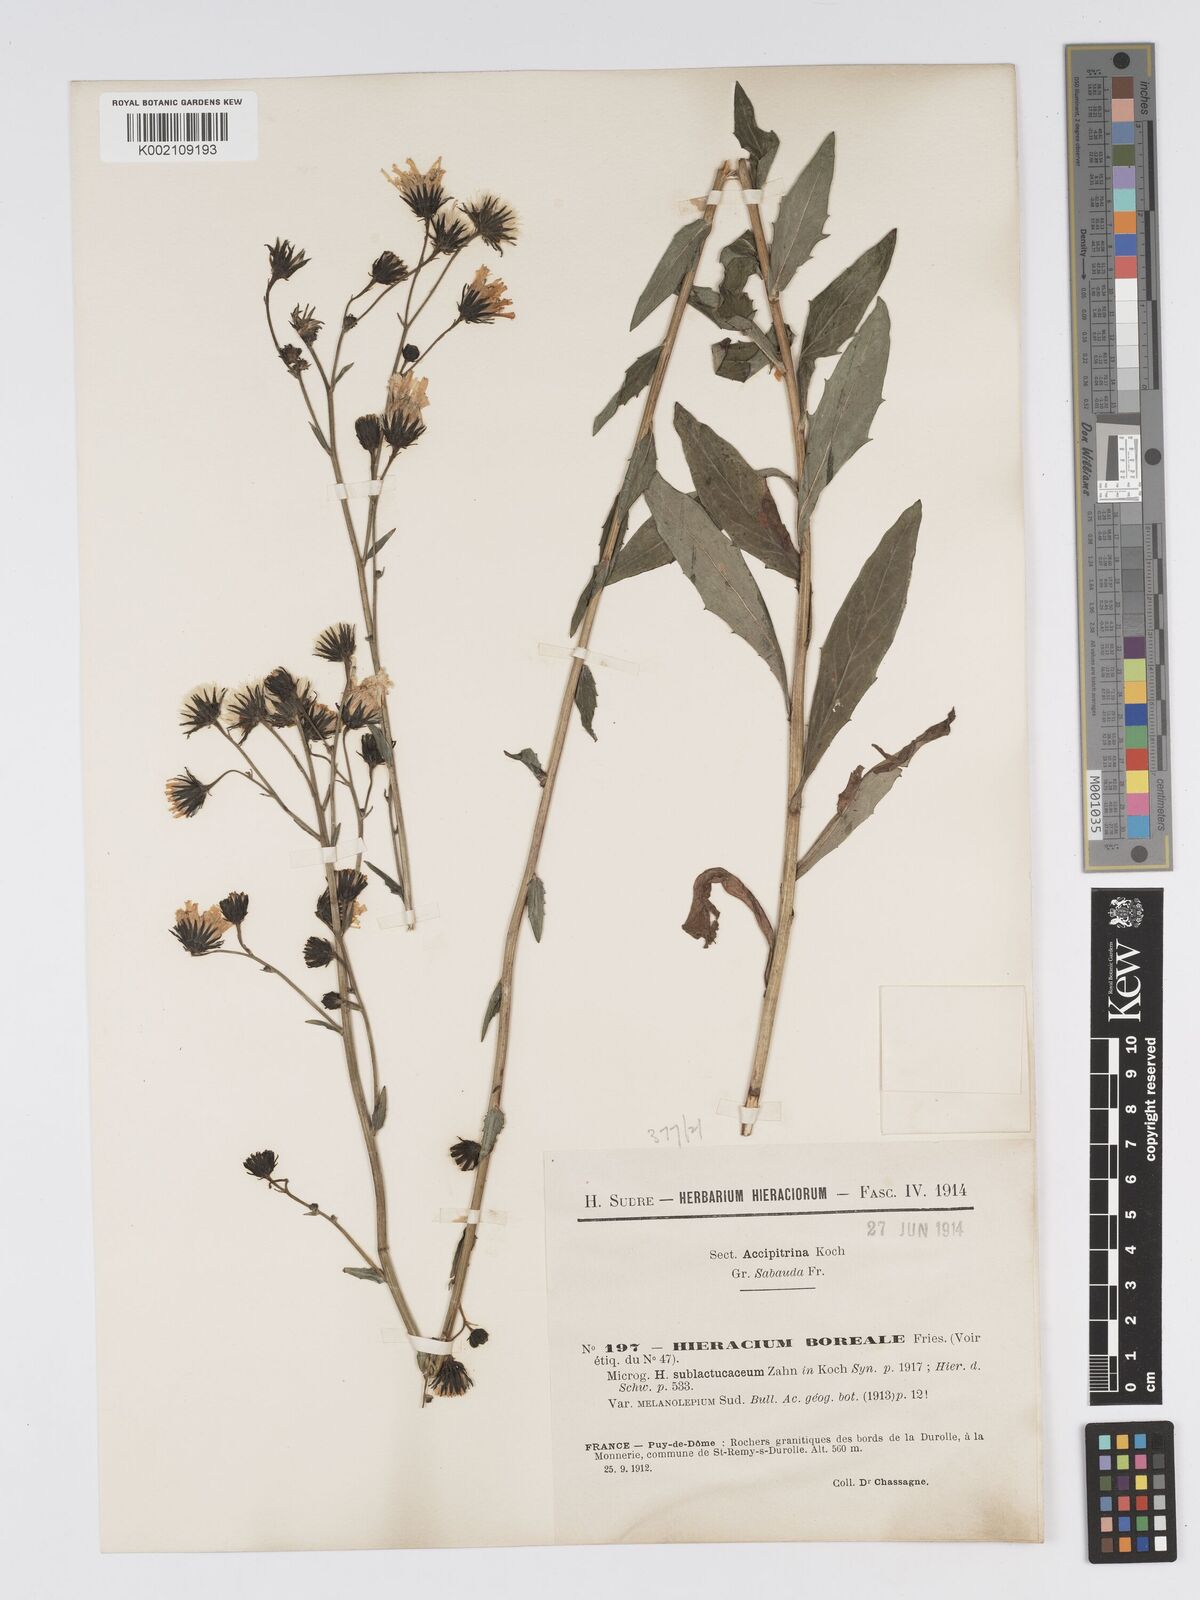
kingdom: Plantae
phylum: Tracheophyta
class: Magnoliopsida
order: Asterales
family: Asteraceae
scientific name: Asteraceae
